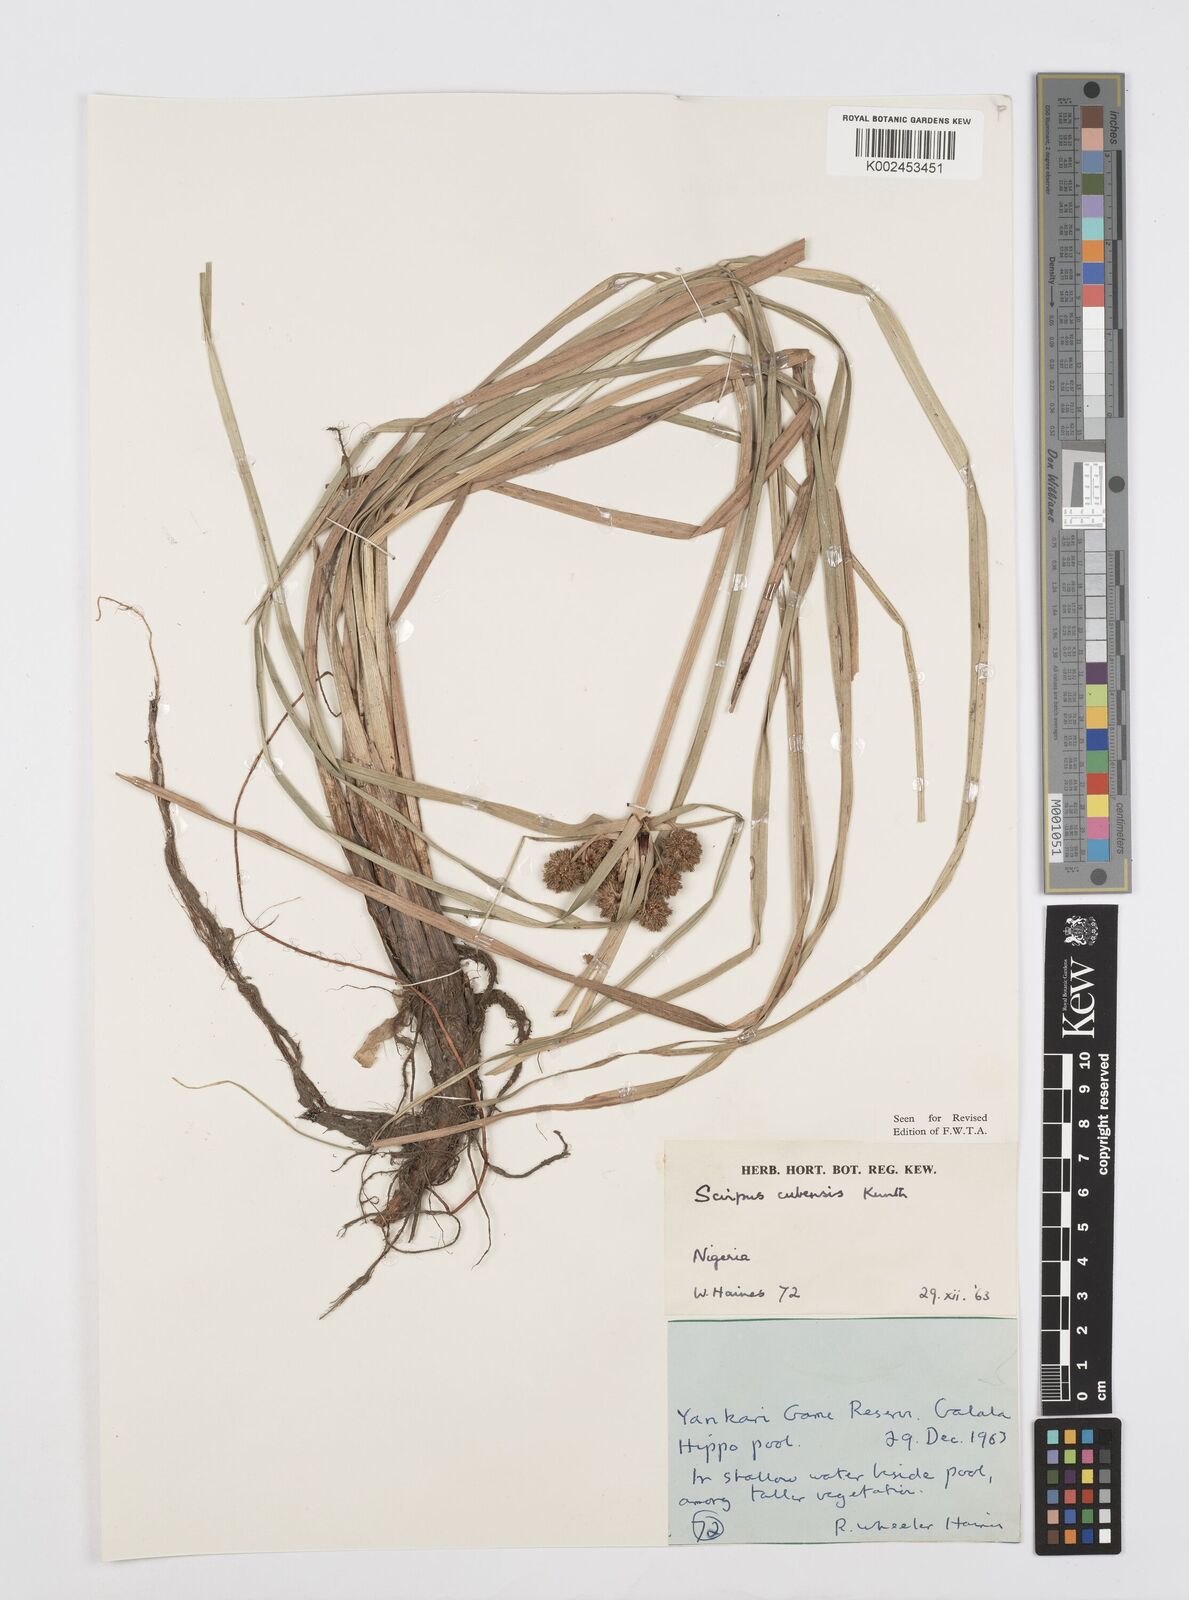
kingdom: Plantae
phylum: Tracheophyta
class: Liliopsida
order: Poales
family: Cyperaceae
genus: Cyperus
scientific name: Cyperus elegans
